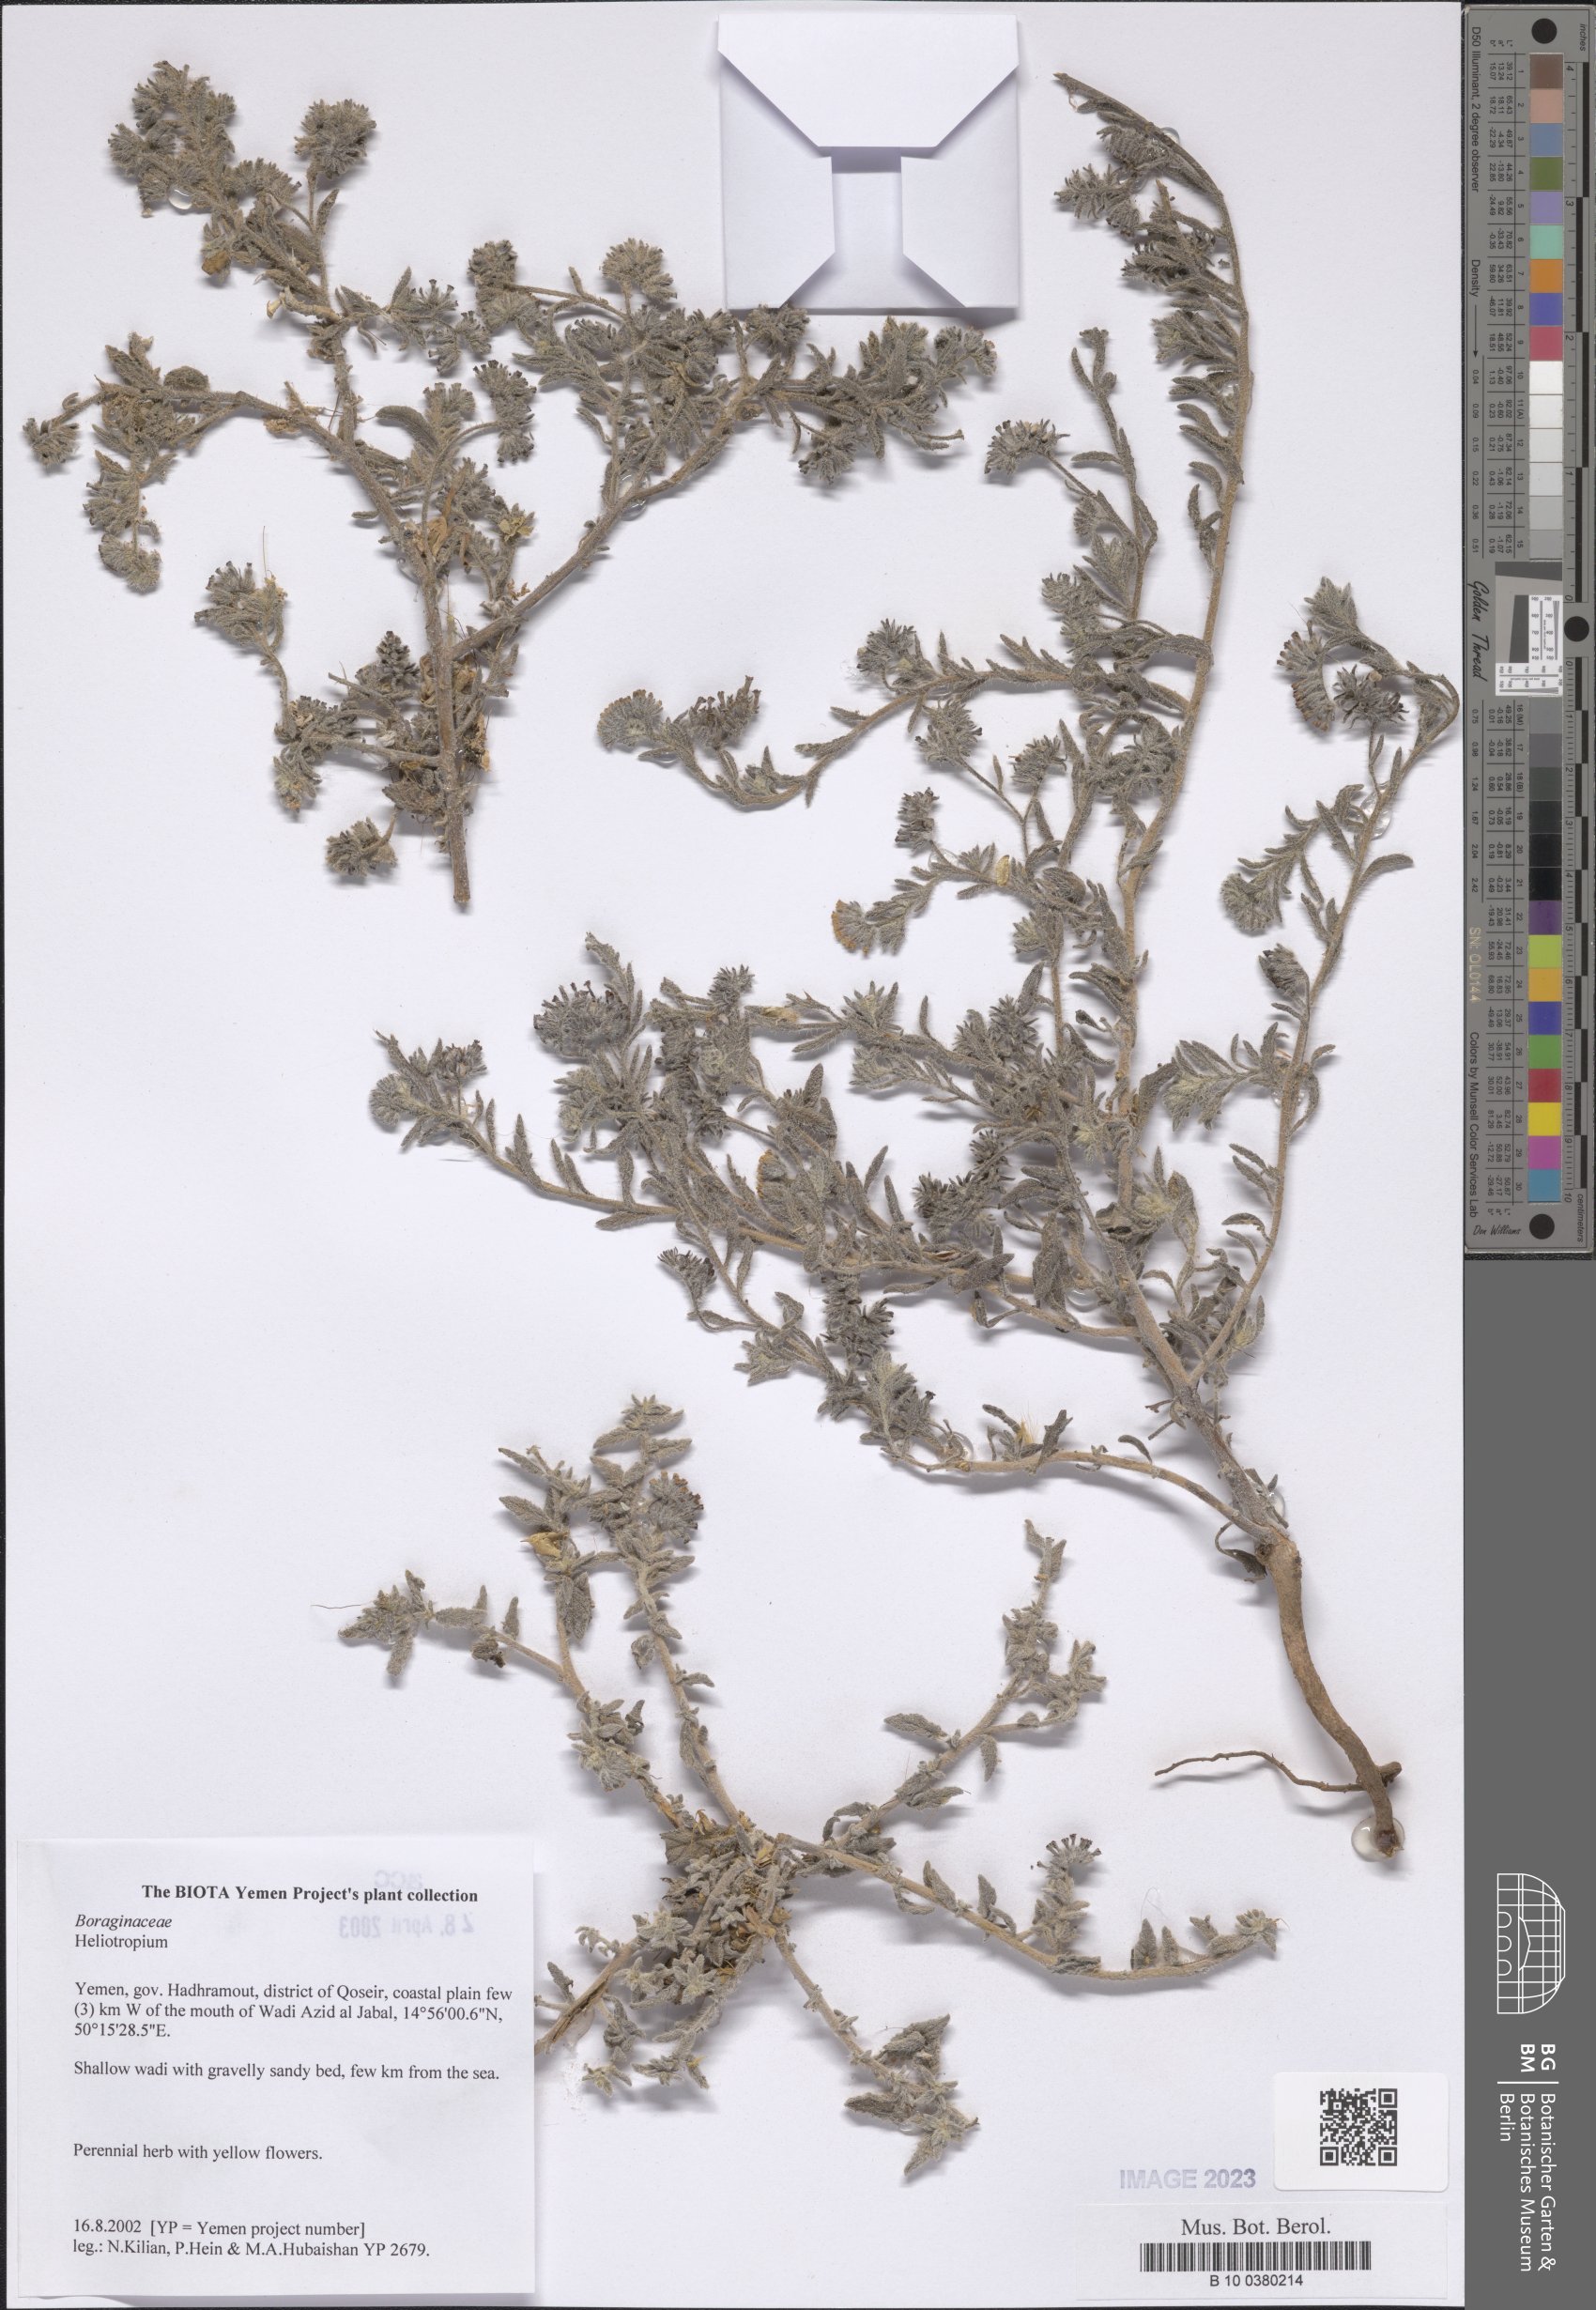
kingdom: Plantae
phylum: Tracheophyta
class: Magnoliopsida
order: Boraginales
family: Heliotropiaceae
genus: Heliotropium
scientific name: Heliotropium
